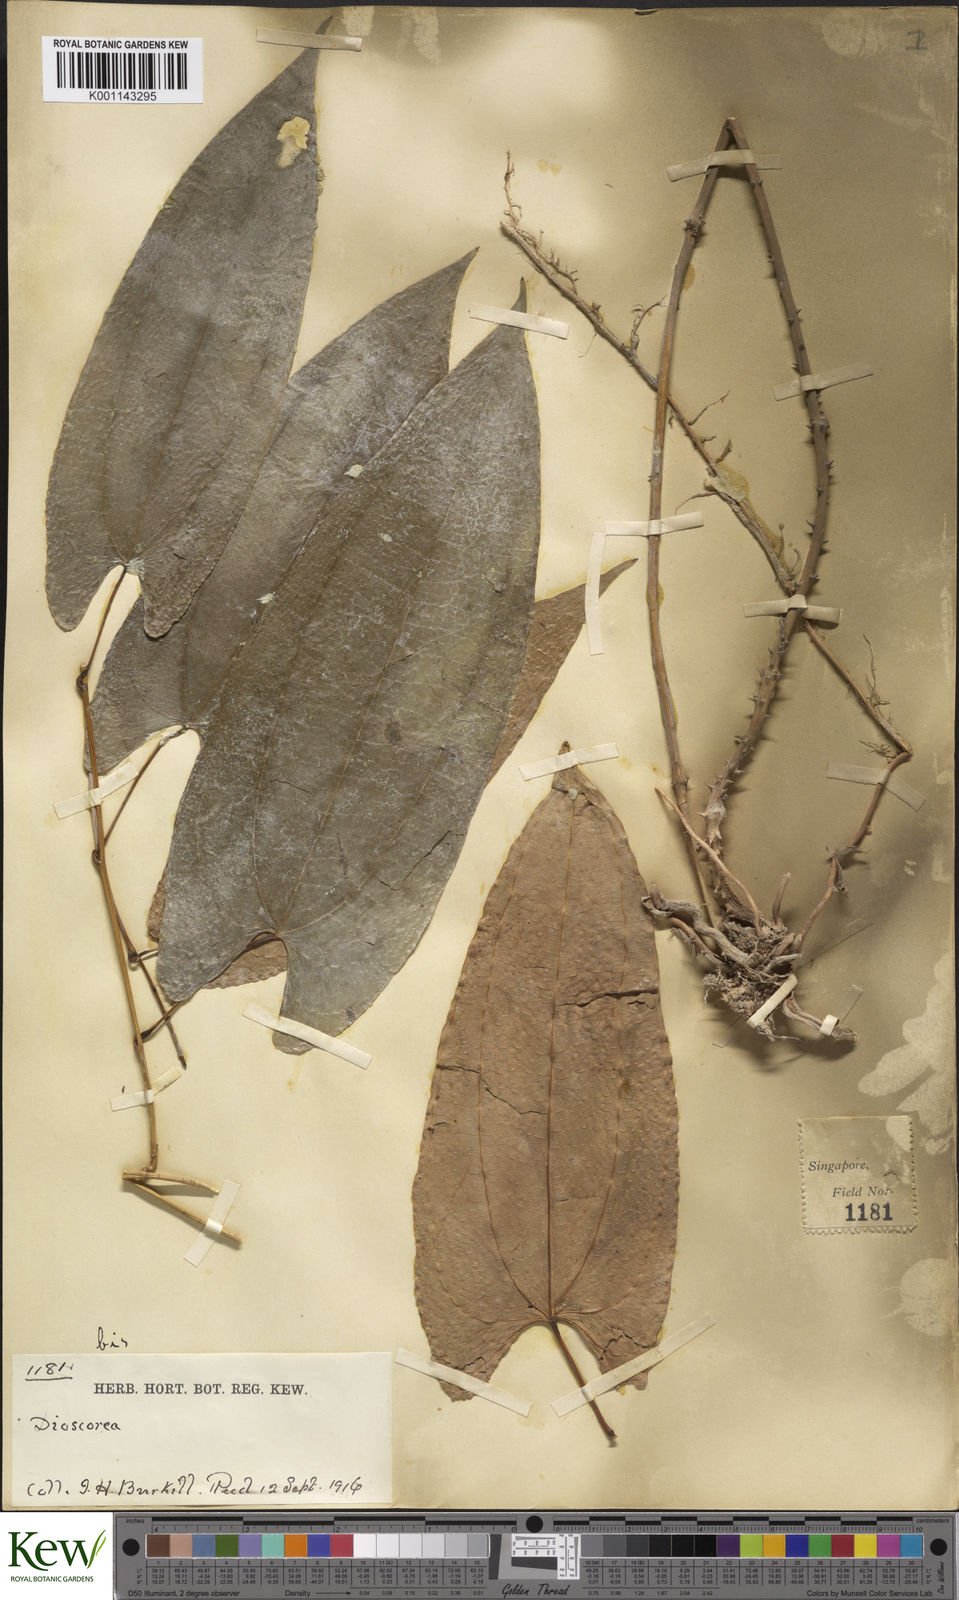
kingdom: Plantae
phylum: Tracheophyta
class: Liliopsida
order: Dioscoreales
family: Dioscoreaceae
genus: Dioscorea
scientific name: Dioscorea glabra
